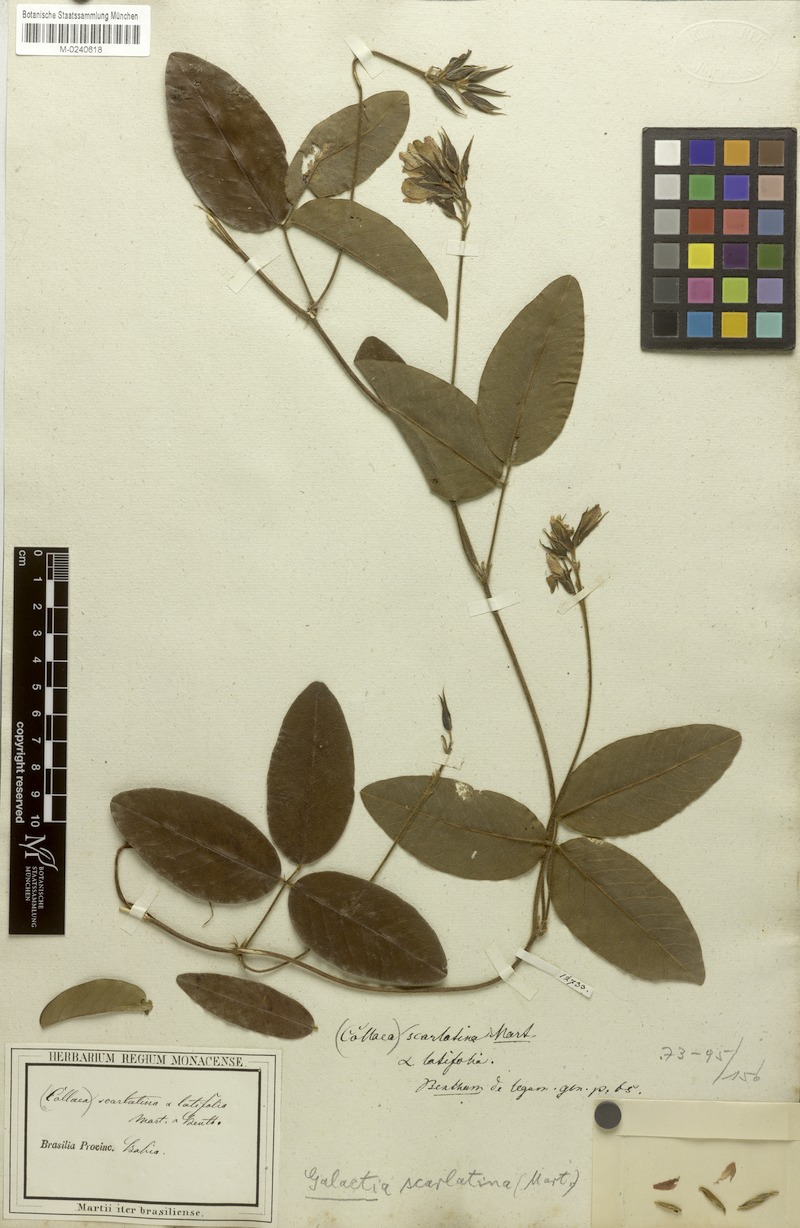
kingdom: Plantae
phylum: Tracheophyta
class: Magnoliopsida
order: Fabales
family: Fabaceae
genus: Betencourtia
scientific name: Betencourtia scarlatina
